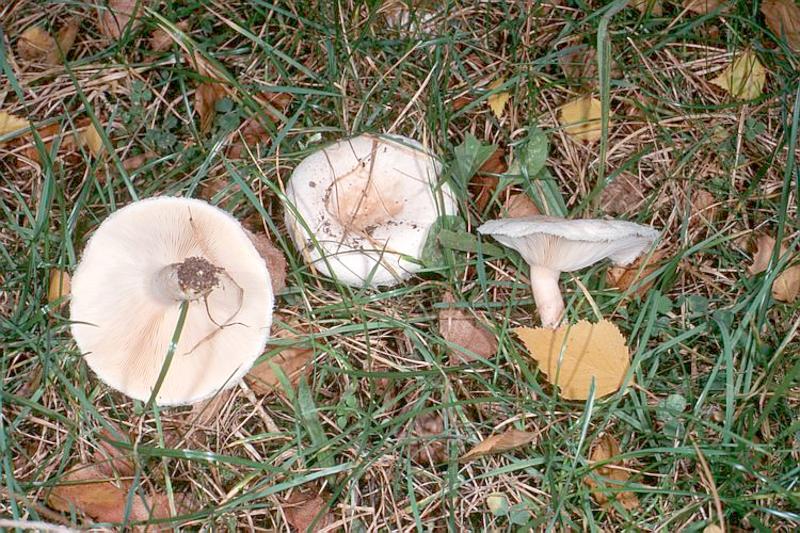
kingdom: Fungi
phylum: Basidiomycota
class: Agaricomycetes
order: Russulales
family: Russulaceae
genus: Lactarius
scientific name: Lactarius pubescens
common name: Bearded milkcap
